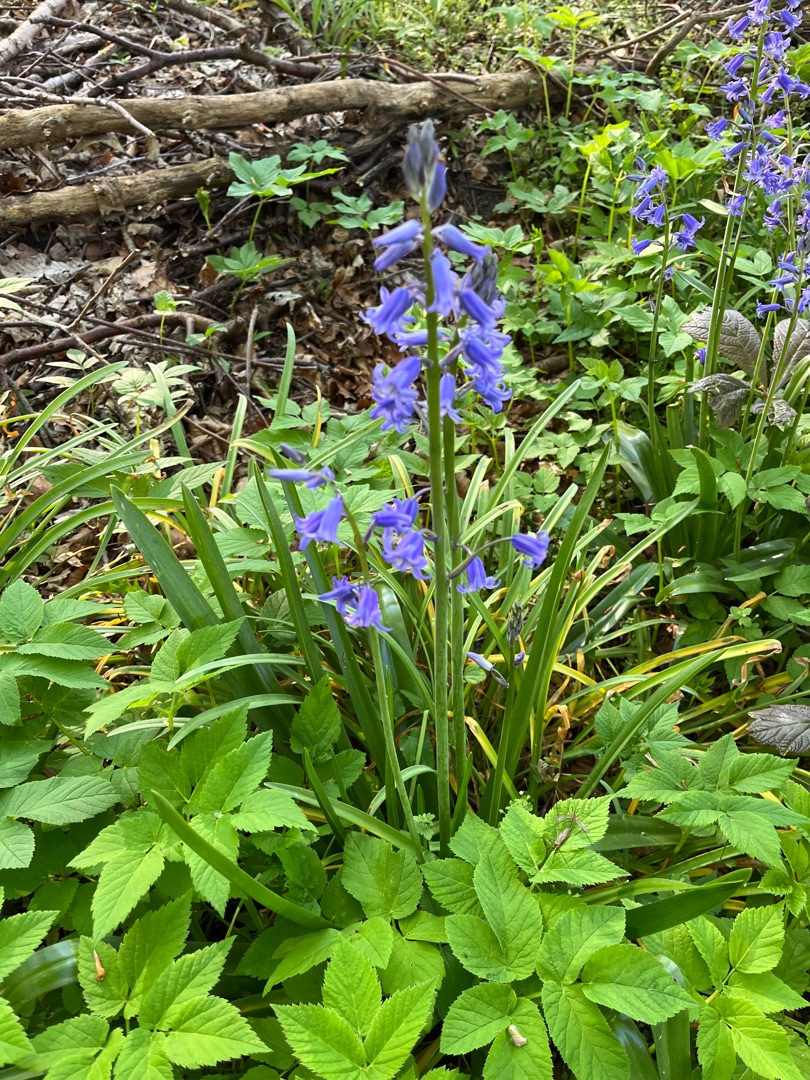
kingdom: Plantae
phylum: Tracheophyta
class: Liliopsida
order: Asparagales
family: Asparagaceae
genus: Hyacinthoides
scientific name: Hyacinthoides massartiana
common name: Hybrid-klokkeskilla
